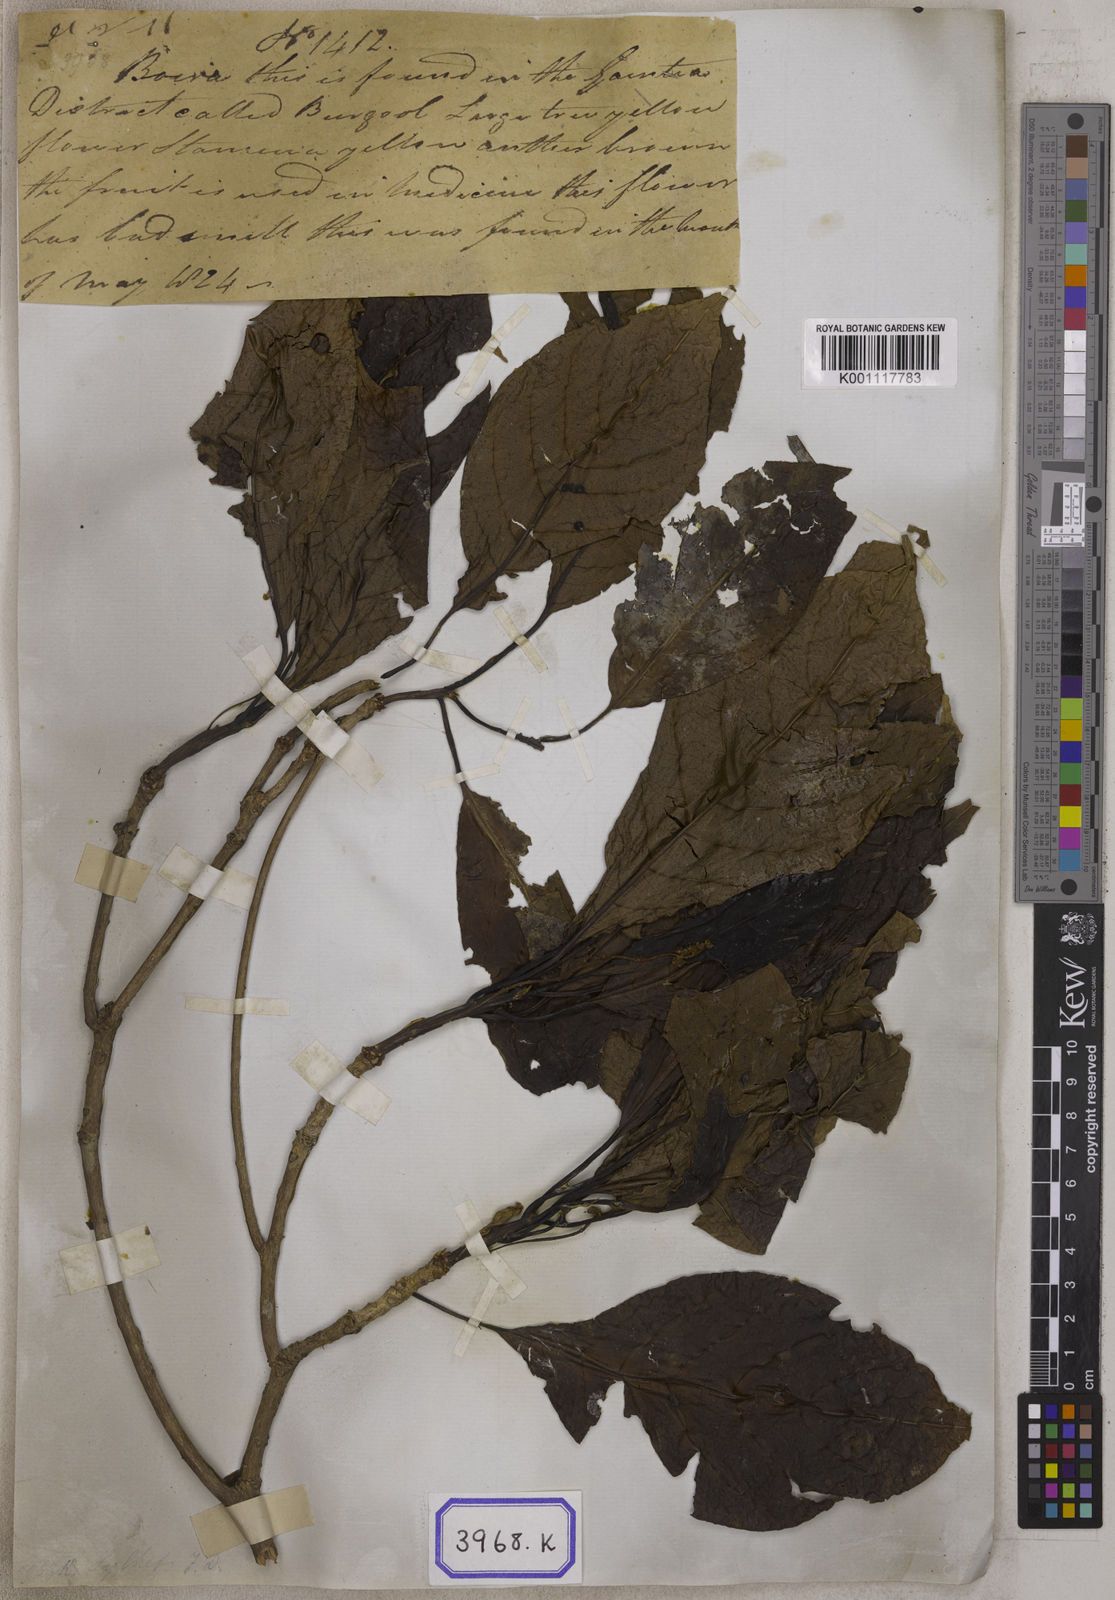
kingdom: Plantae
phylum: Tracheophyta
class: Magnoliopsida
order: Myrtales
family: Combretaceae
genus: Terminalia
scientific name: Terminalia bellirica
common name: Beleric myrobalan
